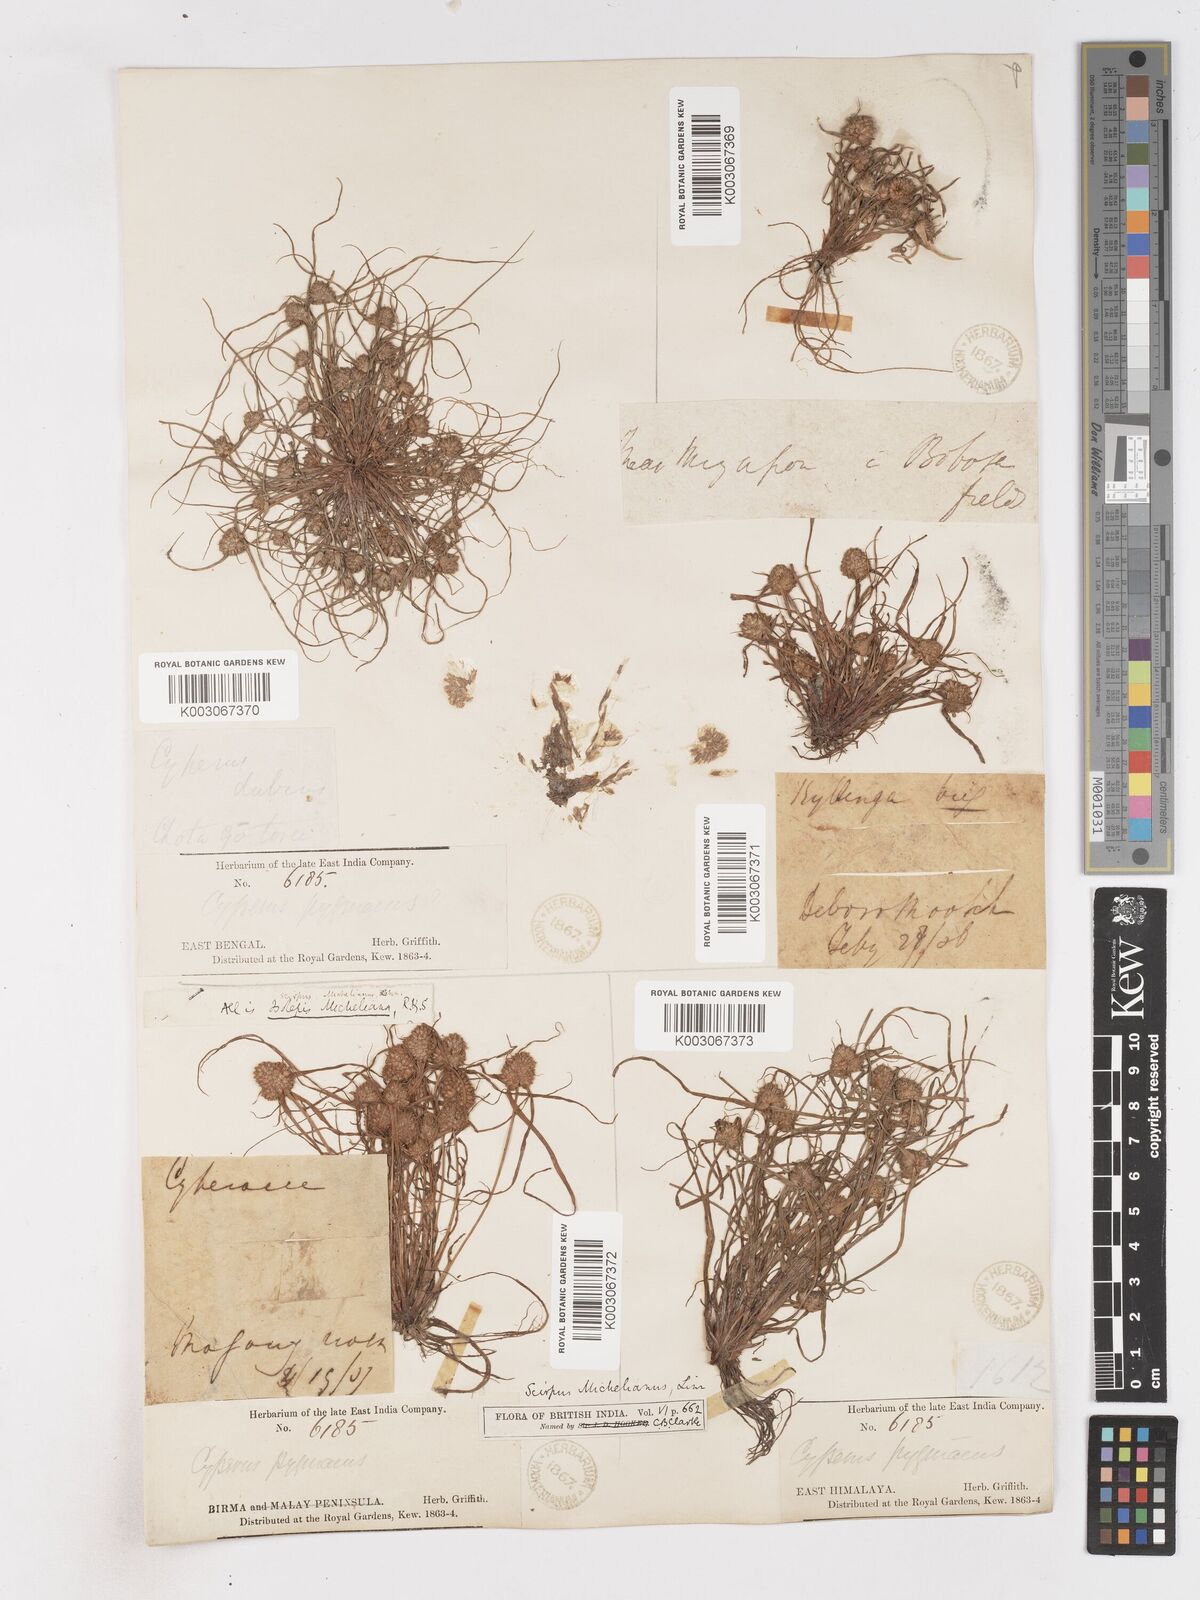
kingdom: Plantae
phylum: Tracheophyta
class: Liliopsida
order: Poales
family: Cyperaceae
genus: Cyperus
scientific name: Cyperus michelianus
